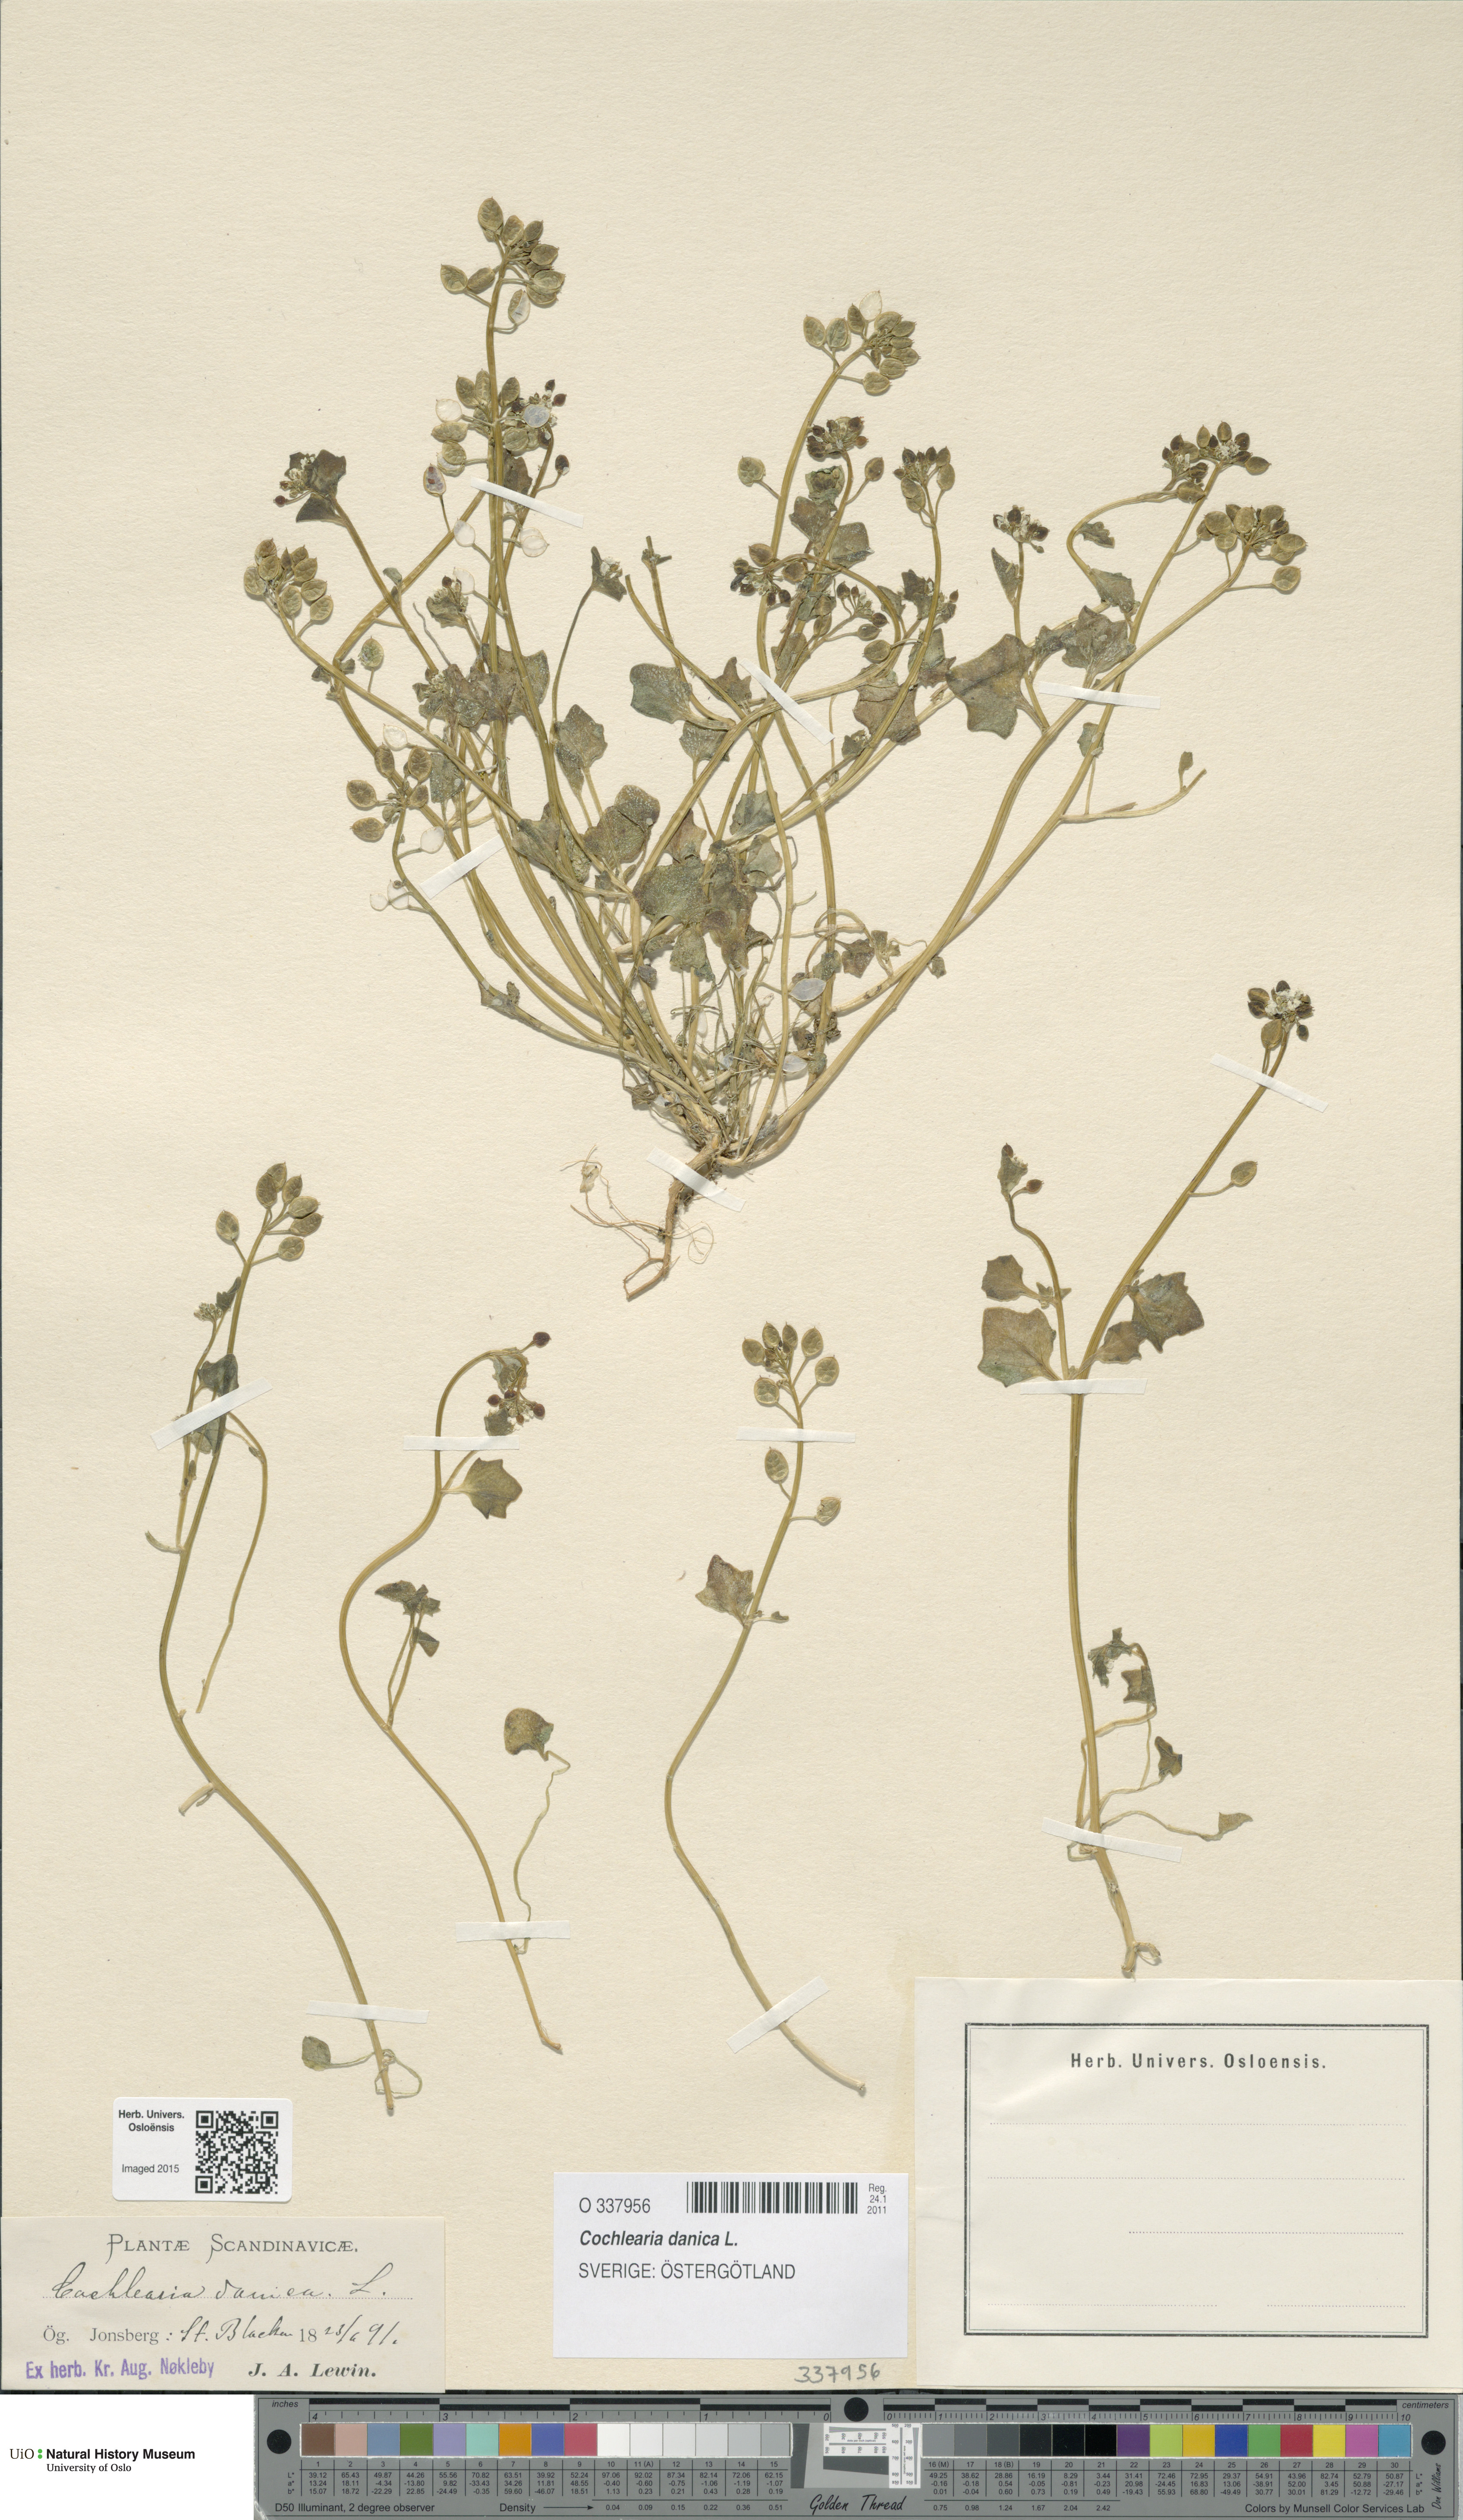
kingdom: Plantae
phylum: Tracheophyta
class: Magnoliopsida
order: Brassicales
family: Brassicaceae
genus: Cochlearia
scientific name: Cochlearia danica
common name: Early scurvygrass
